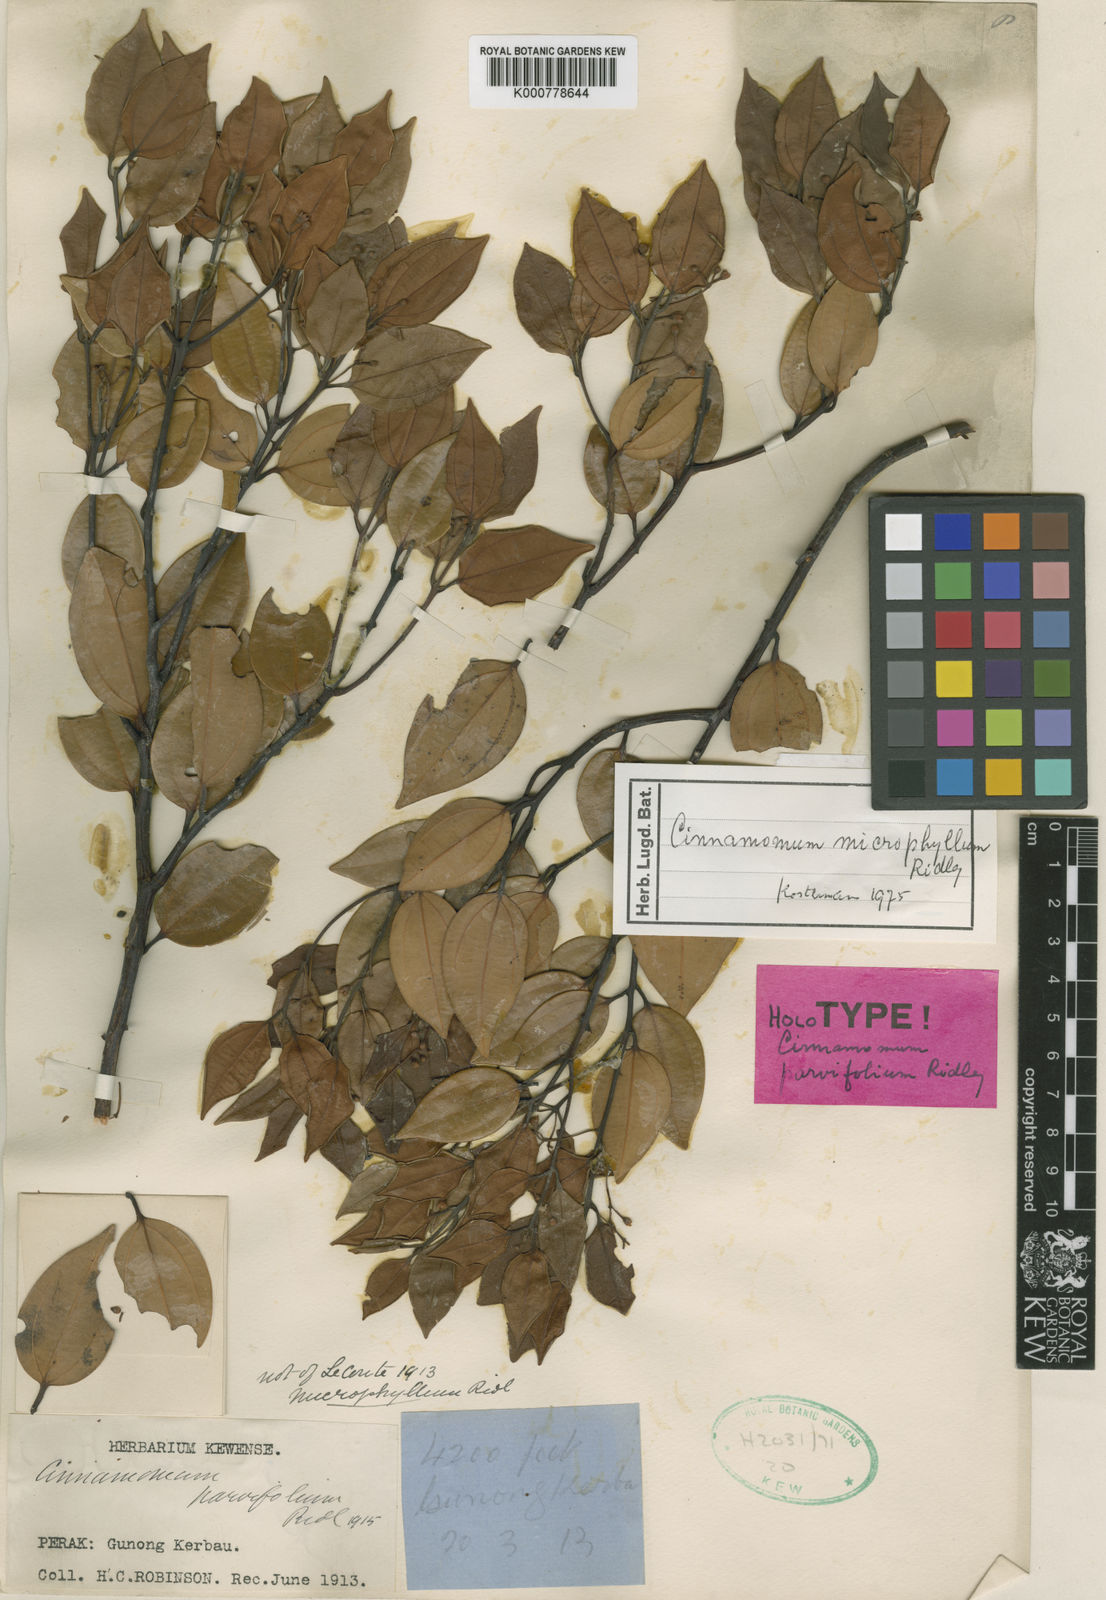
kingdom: Plantae
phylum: Tracheophyta
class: Magnoliopsida
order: Laurales
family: Lauraceae
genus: Cinnamomum
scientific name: Cinnamomum microphyllum
